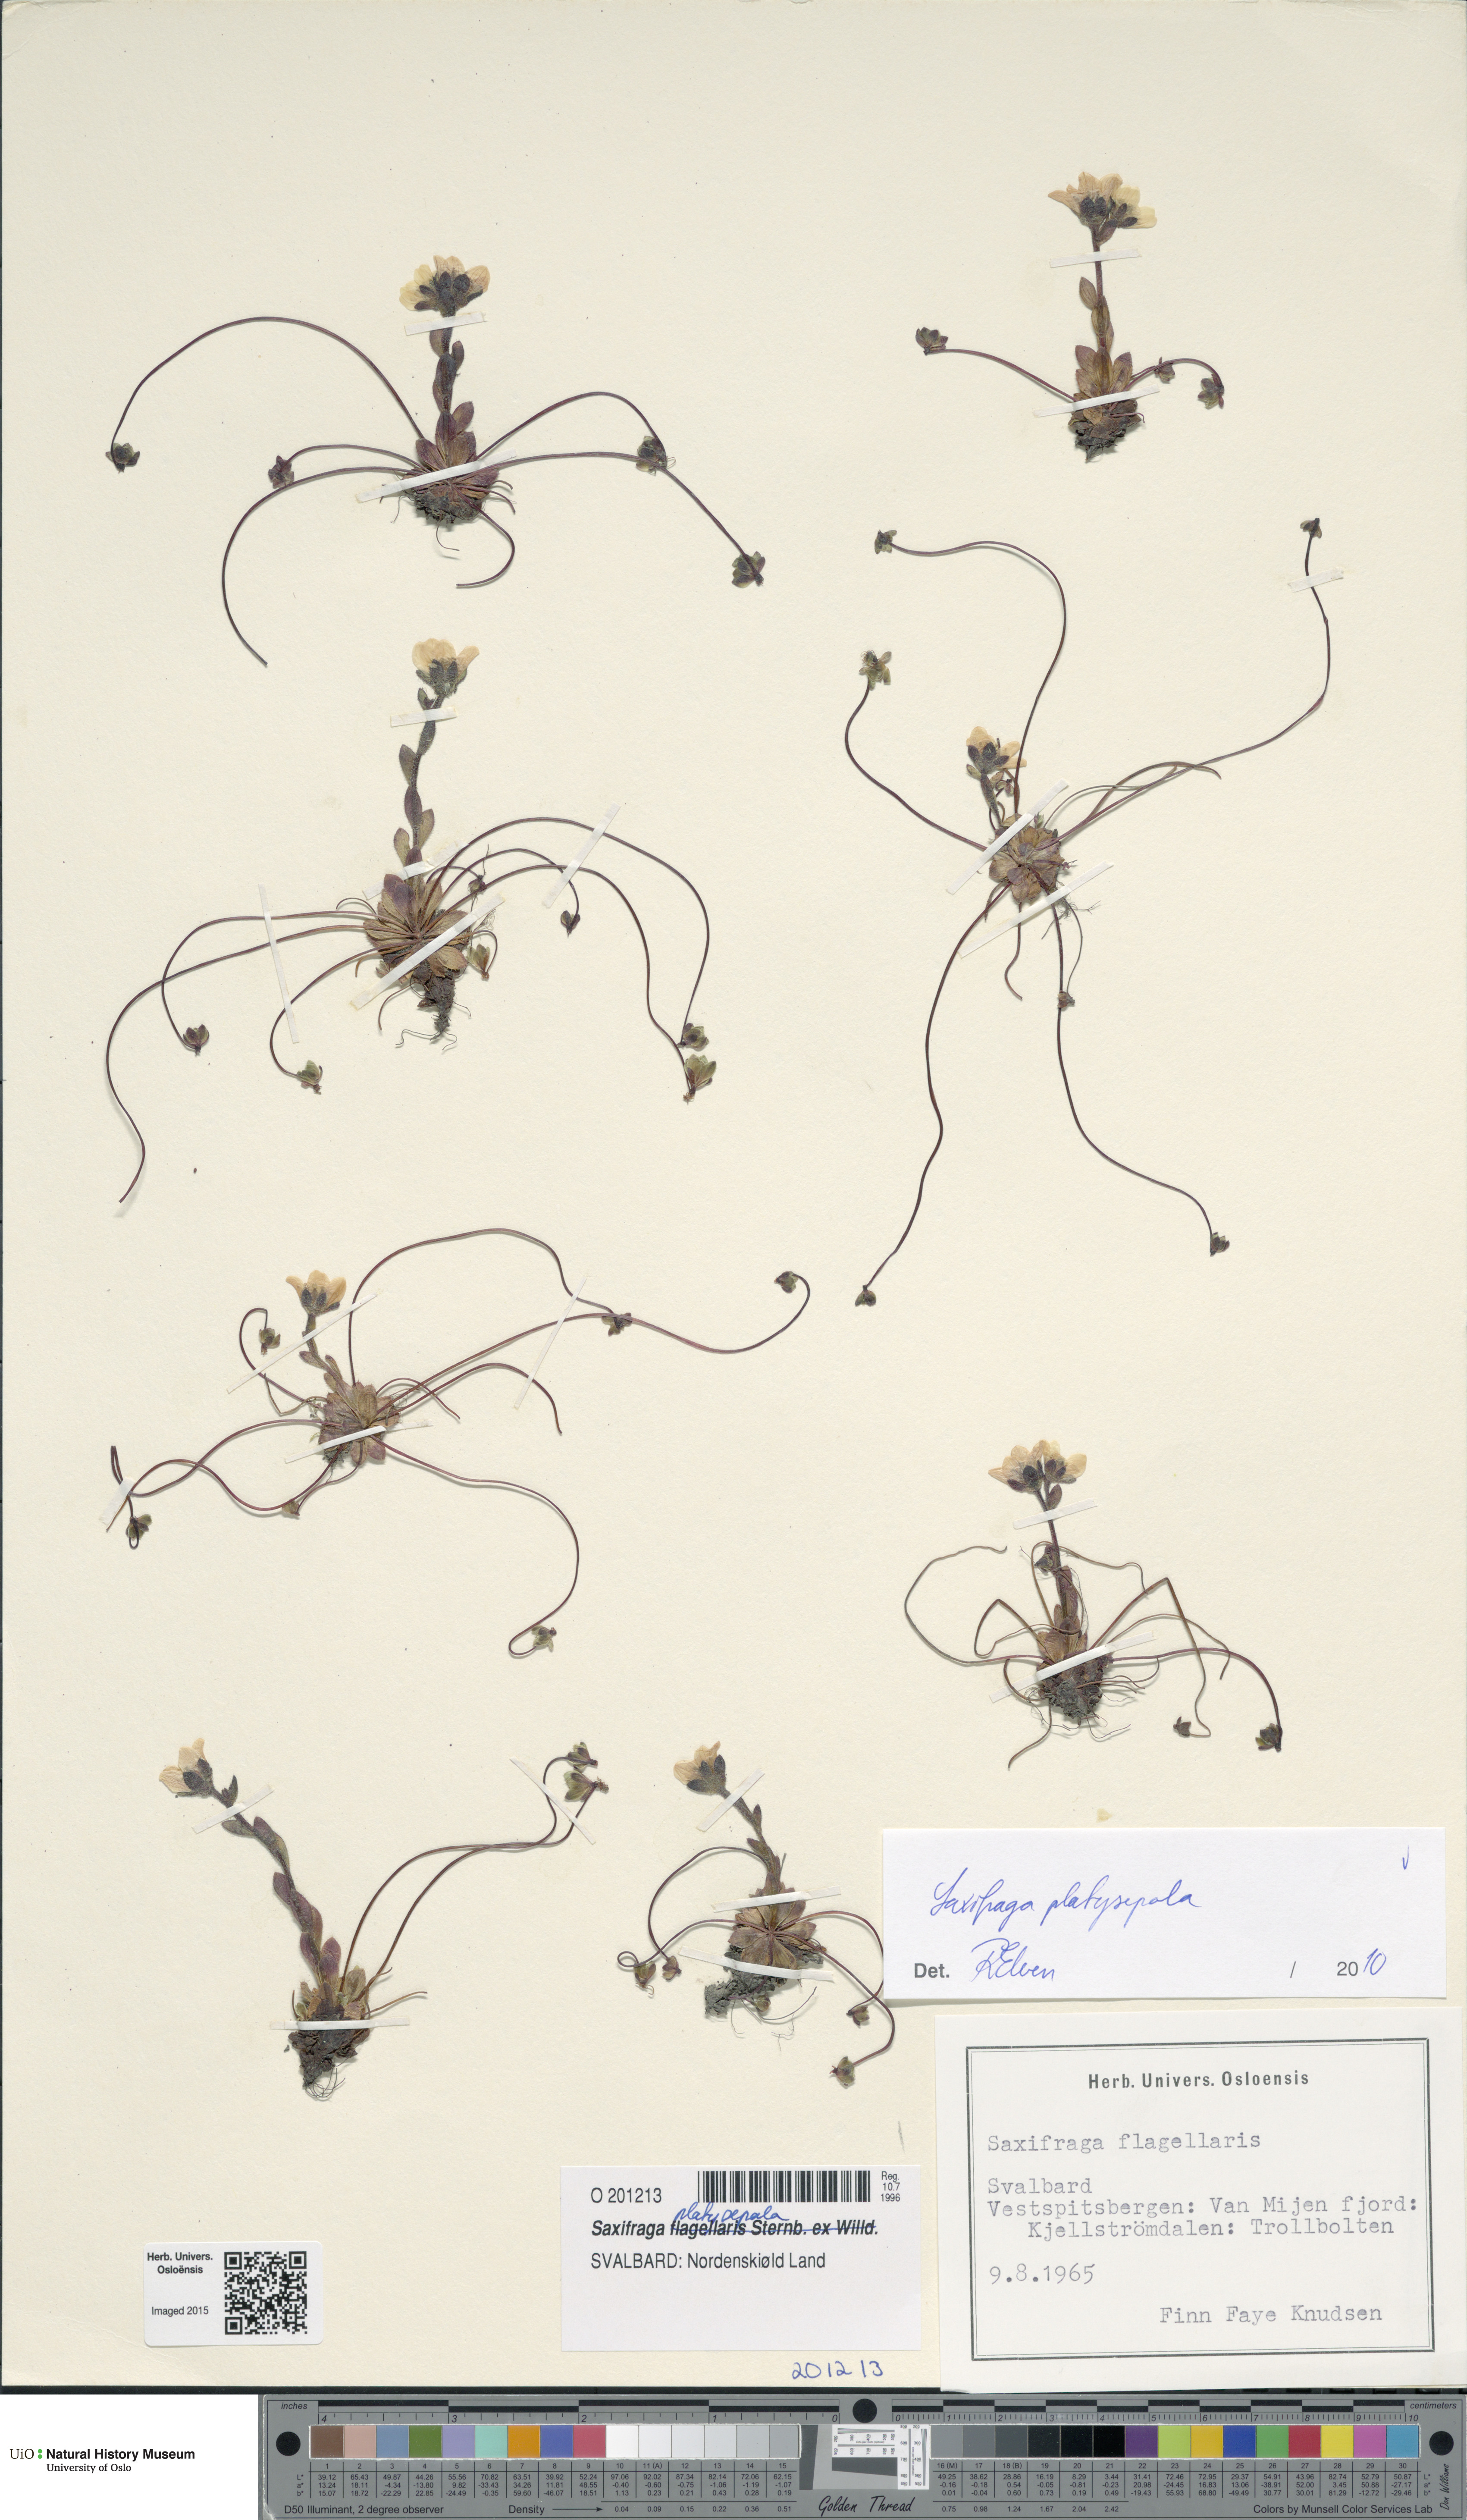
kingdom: Plantae
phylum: Tracheophyta
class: Magnoliopsida
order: Saxifragales
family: Saxifragaceae
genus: Saxifraga
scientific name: Saxifraga platysepala
